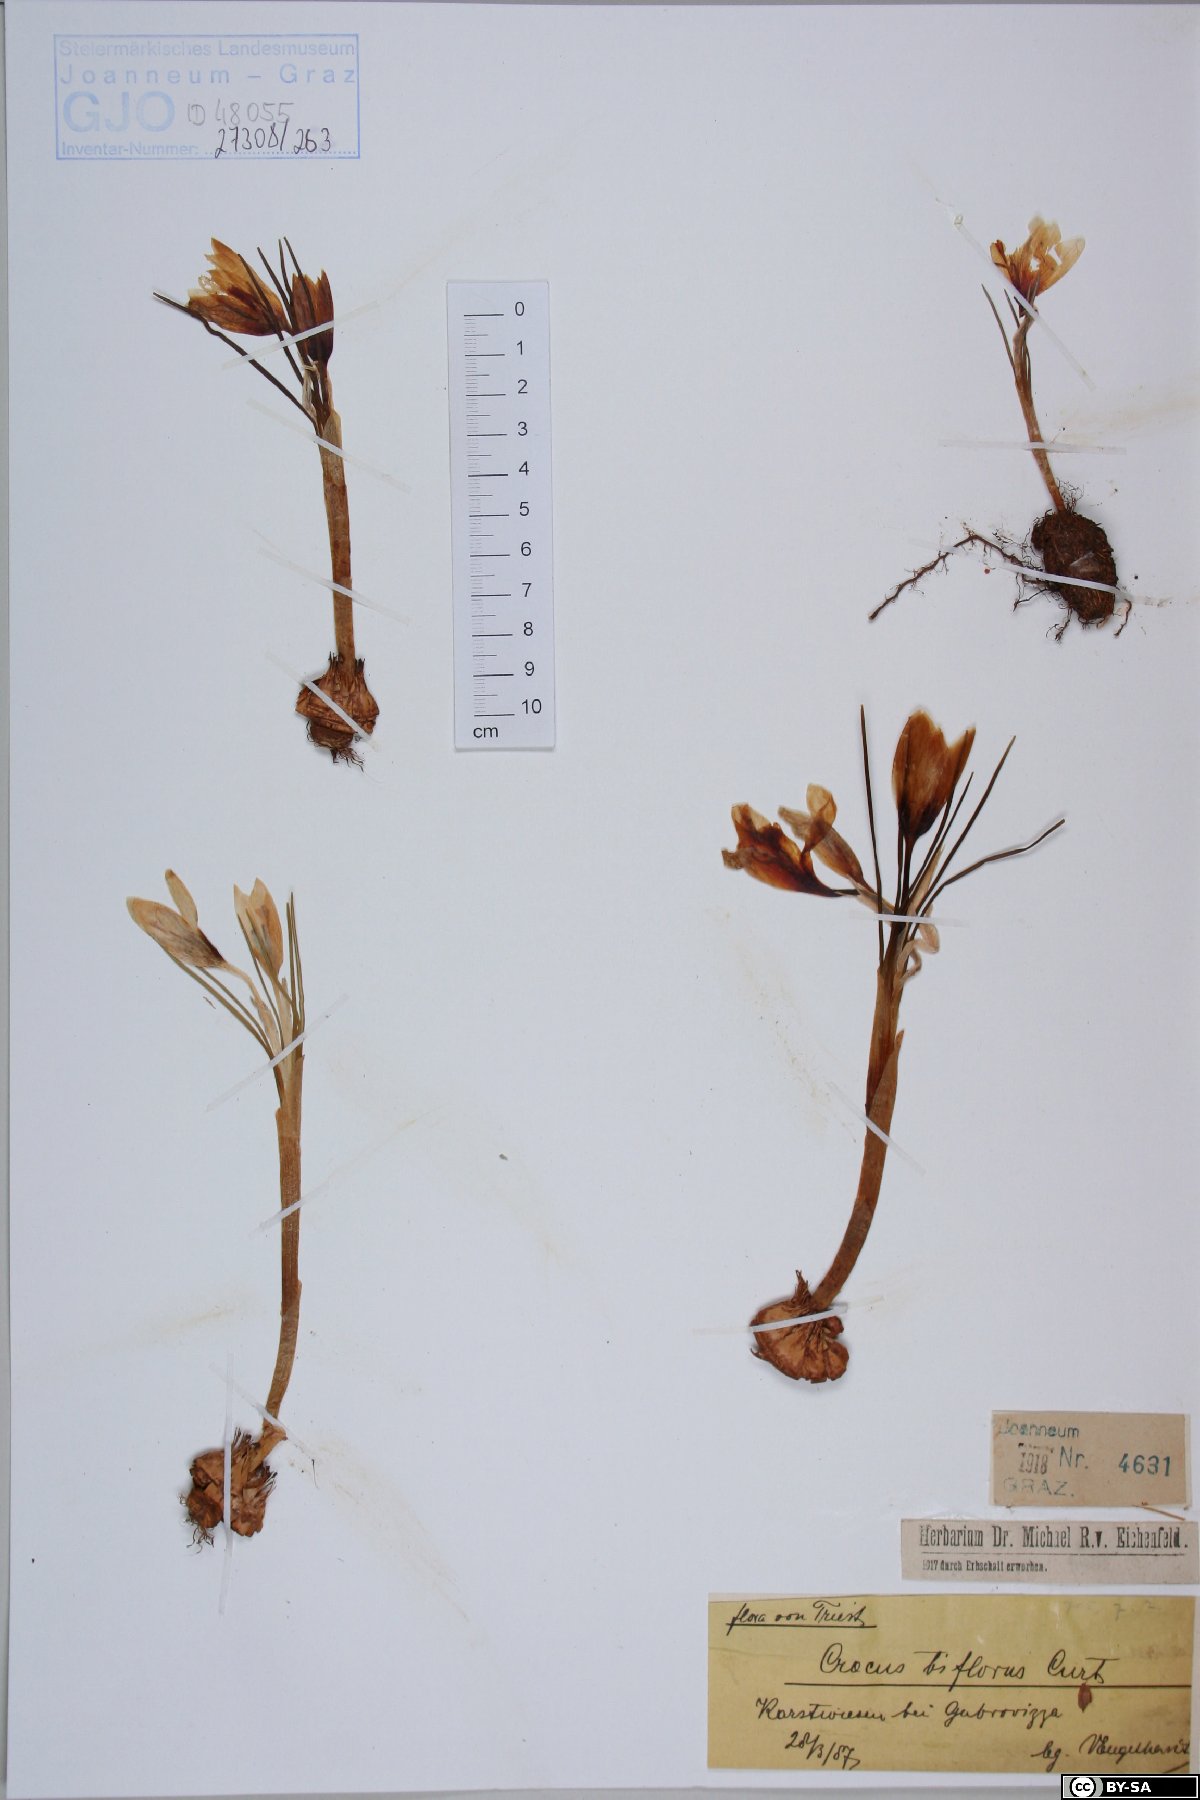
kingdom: Plantae
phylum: Tracheophyta
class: Liliopsida
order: Asparagales
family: Iridaceae
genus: Crocus
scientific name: Crocus biflorus
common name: Silvery crocus
